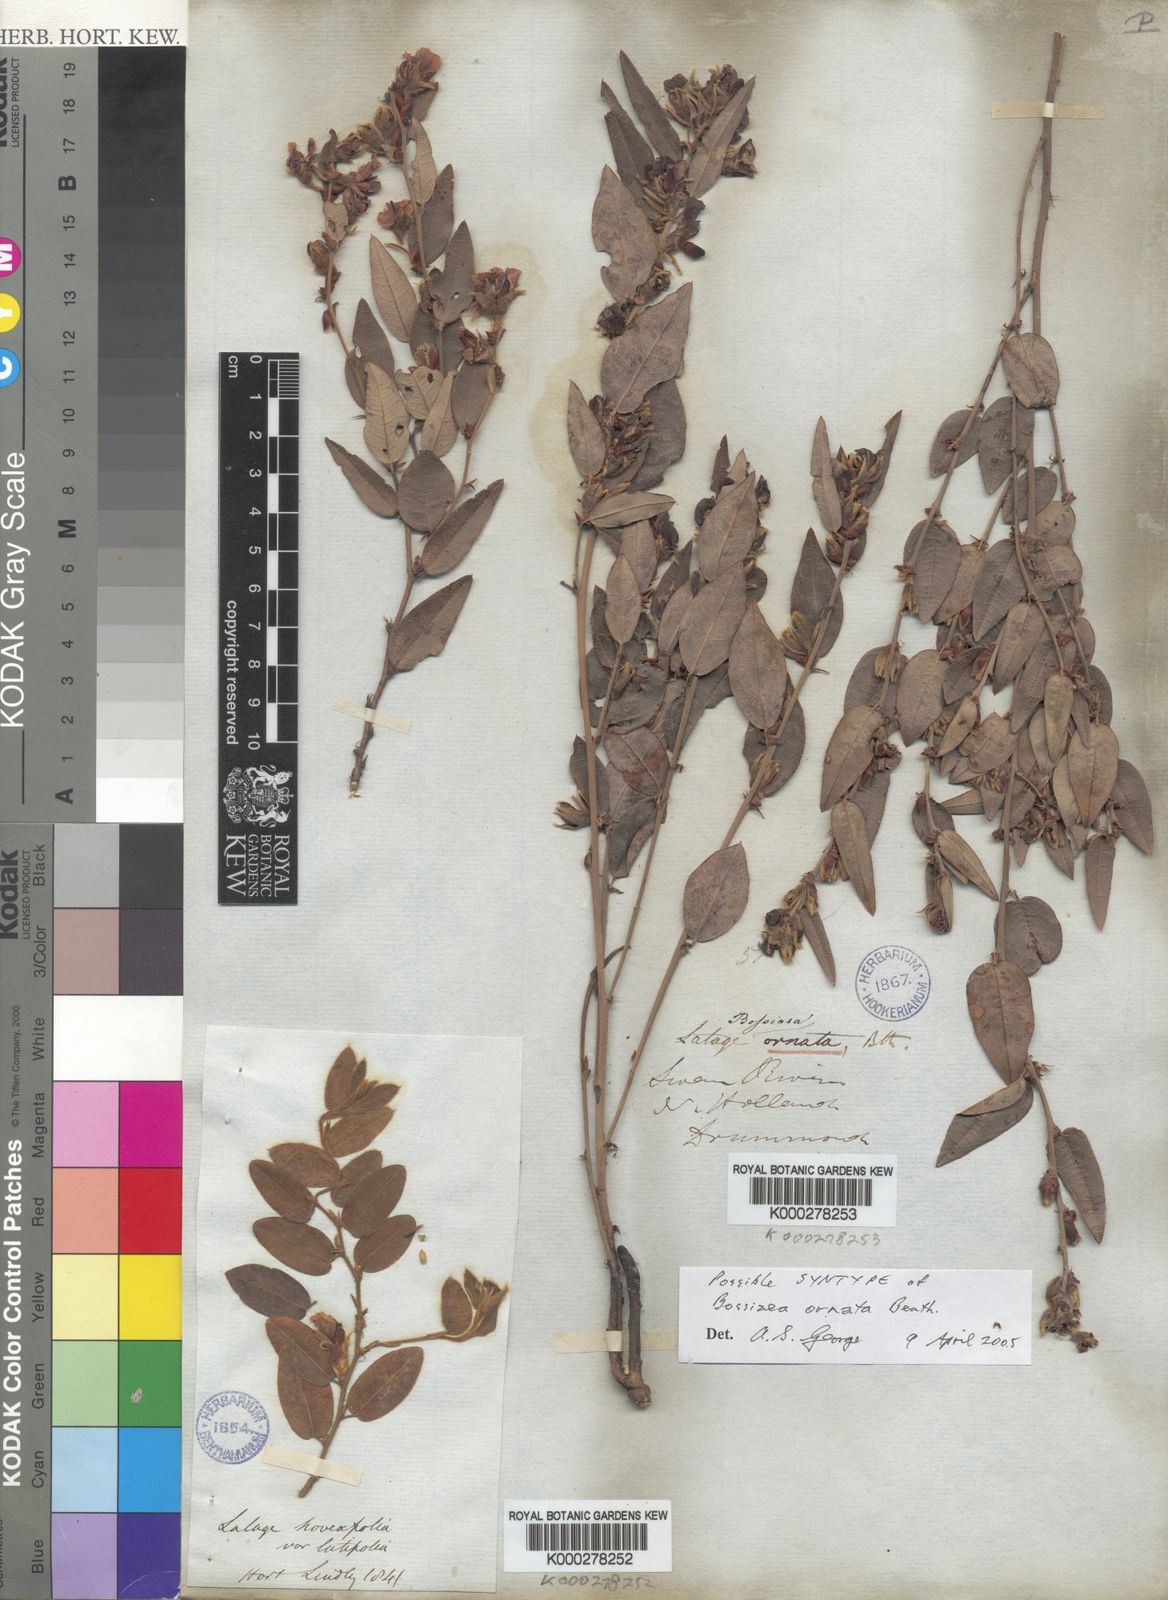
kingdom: Plantae
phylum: Tracheophyta
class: Magnoliopsida
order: Fabales
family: Fabaceae
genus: Bossiaea
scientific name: Bossiaea ornata
